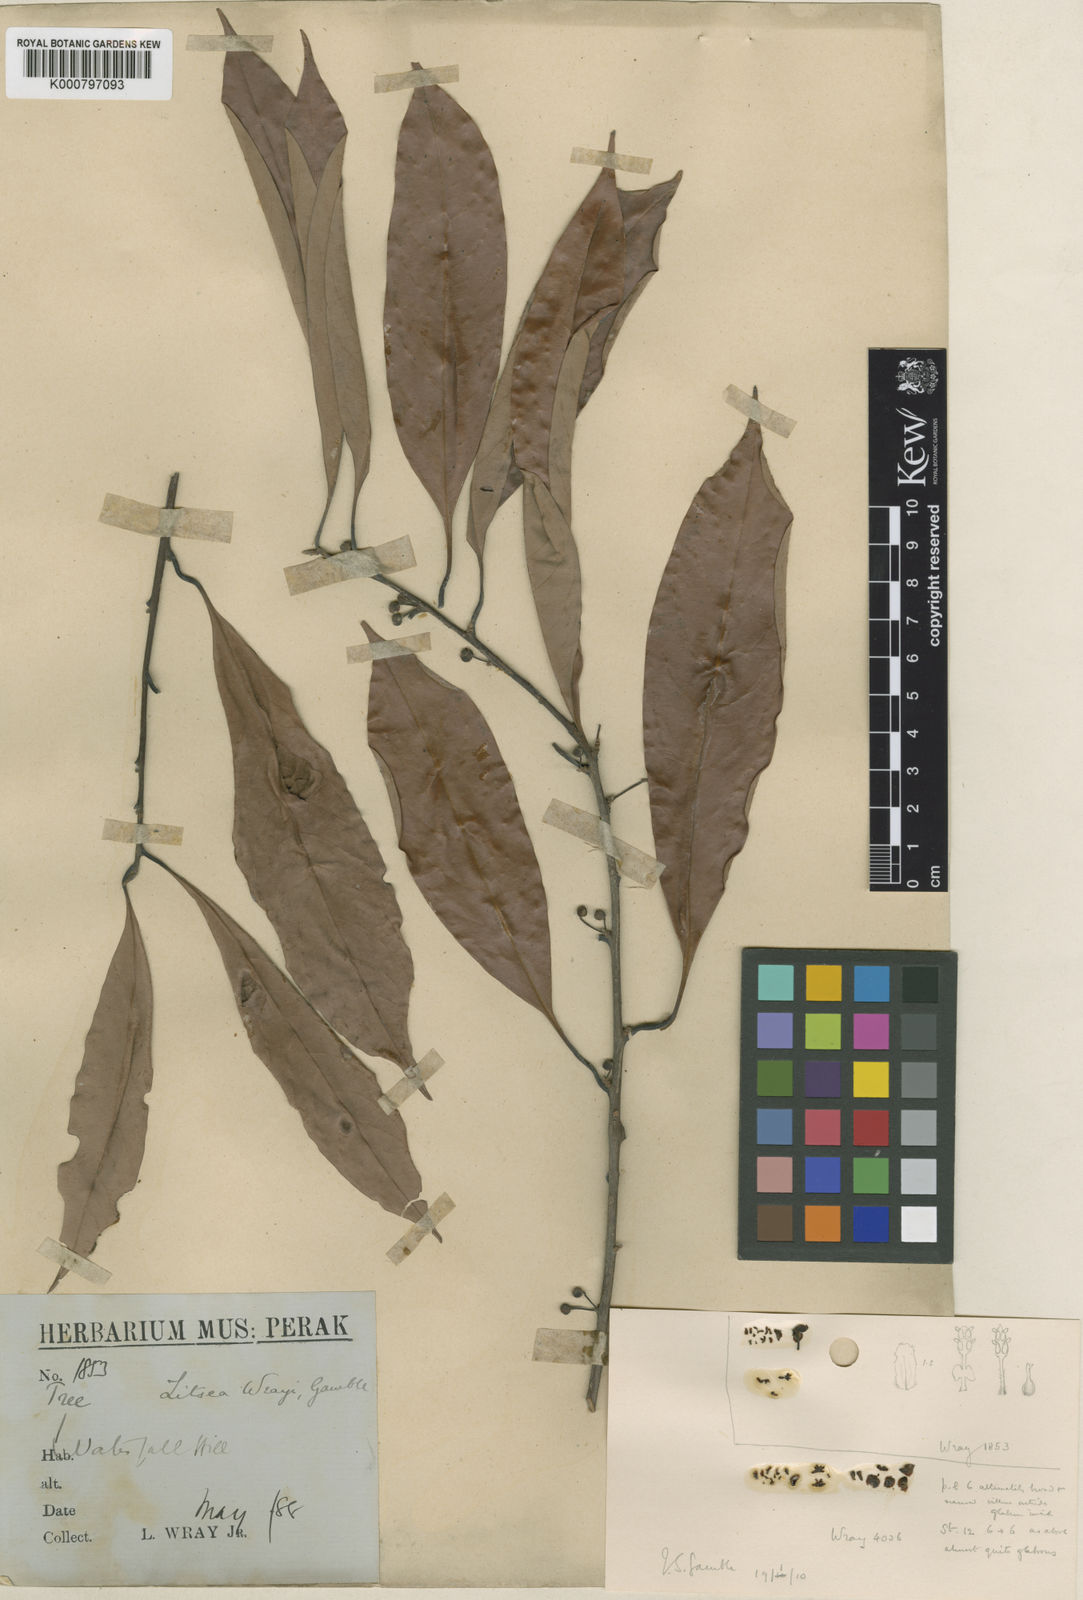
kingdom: Plantae
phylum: Tracheophyta
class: Magnoliopsida
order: Laurales
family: Lauraceae
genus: Litsea
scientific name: Litsea accedens
